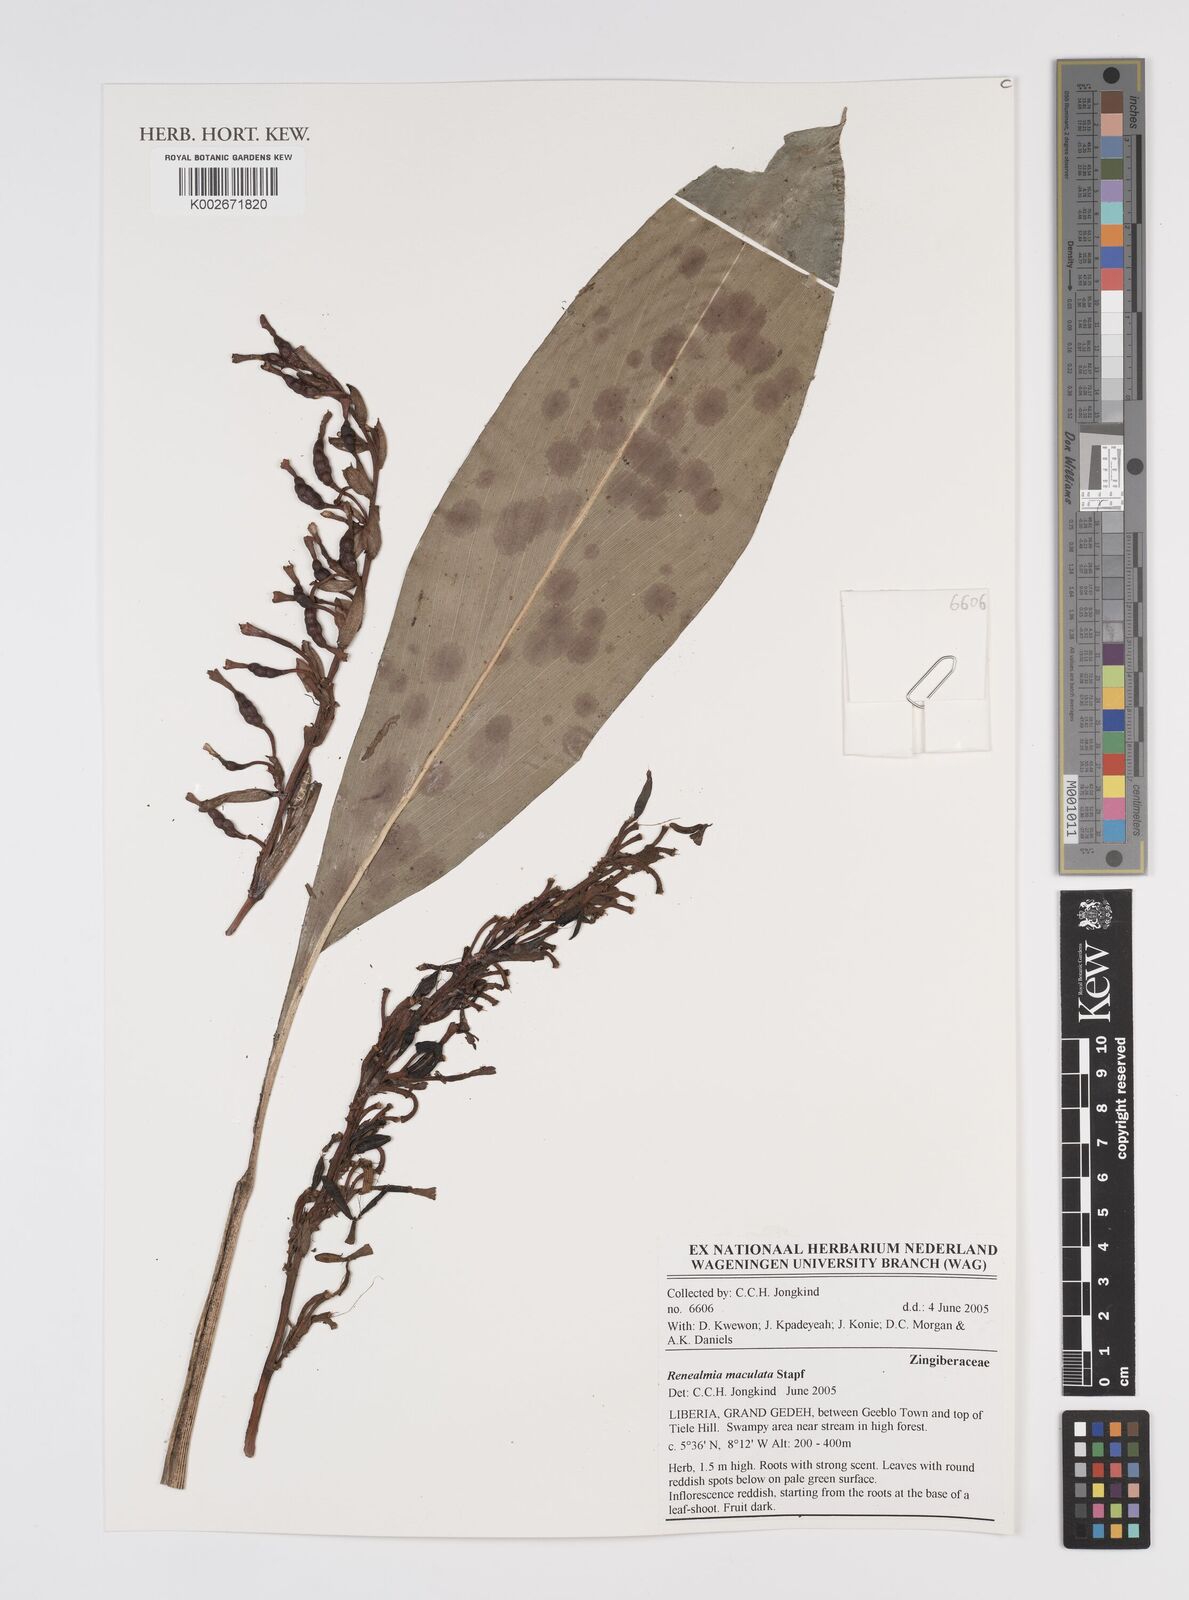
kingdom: Plantae
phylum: Tracheophyta
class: Liliopsida
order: Zingiberales
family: Zingiberaceae
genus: Renealmia
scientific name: Renealmia maculata
